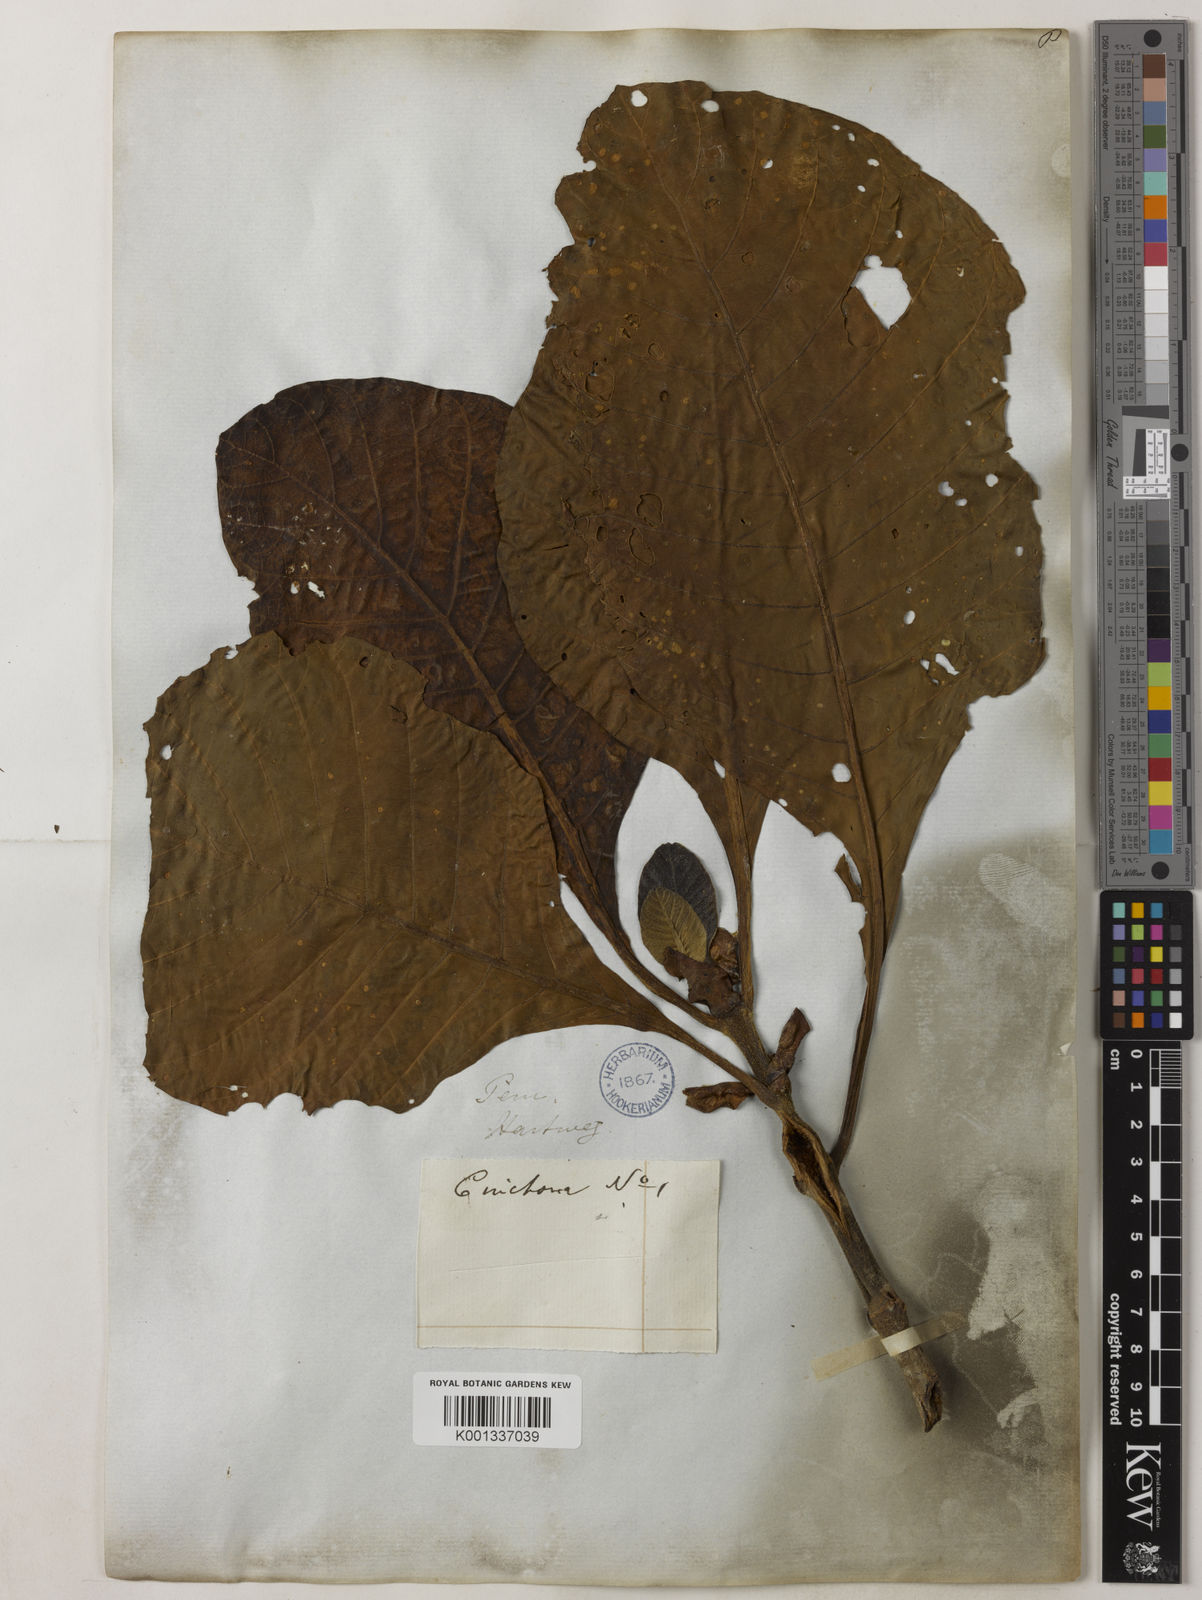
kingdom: Plantae
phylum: Tracheophyta
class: Magnoliopsida
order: Gentianales
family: Rubiaceae
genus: Cinchona
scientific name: Cinchona pubescens
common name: Quinine
